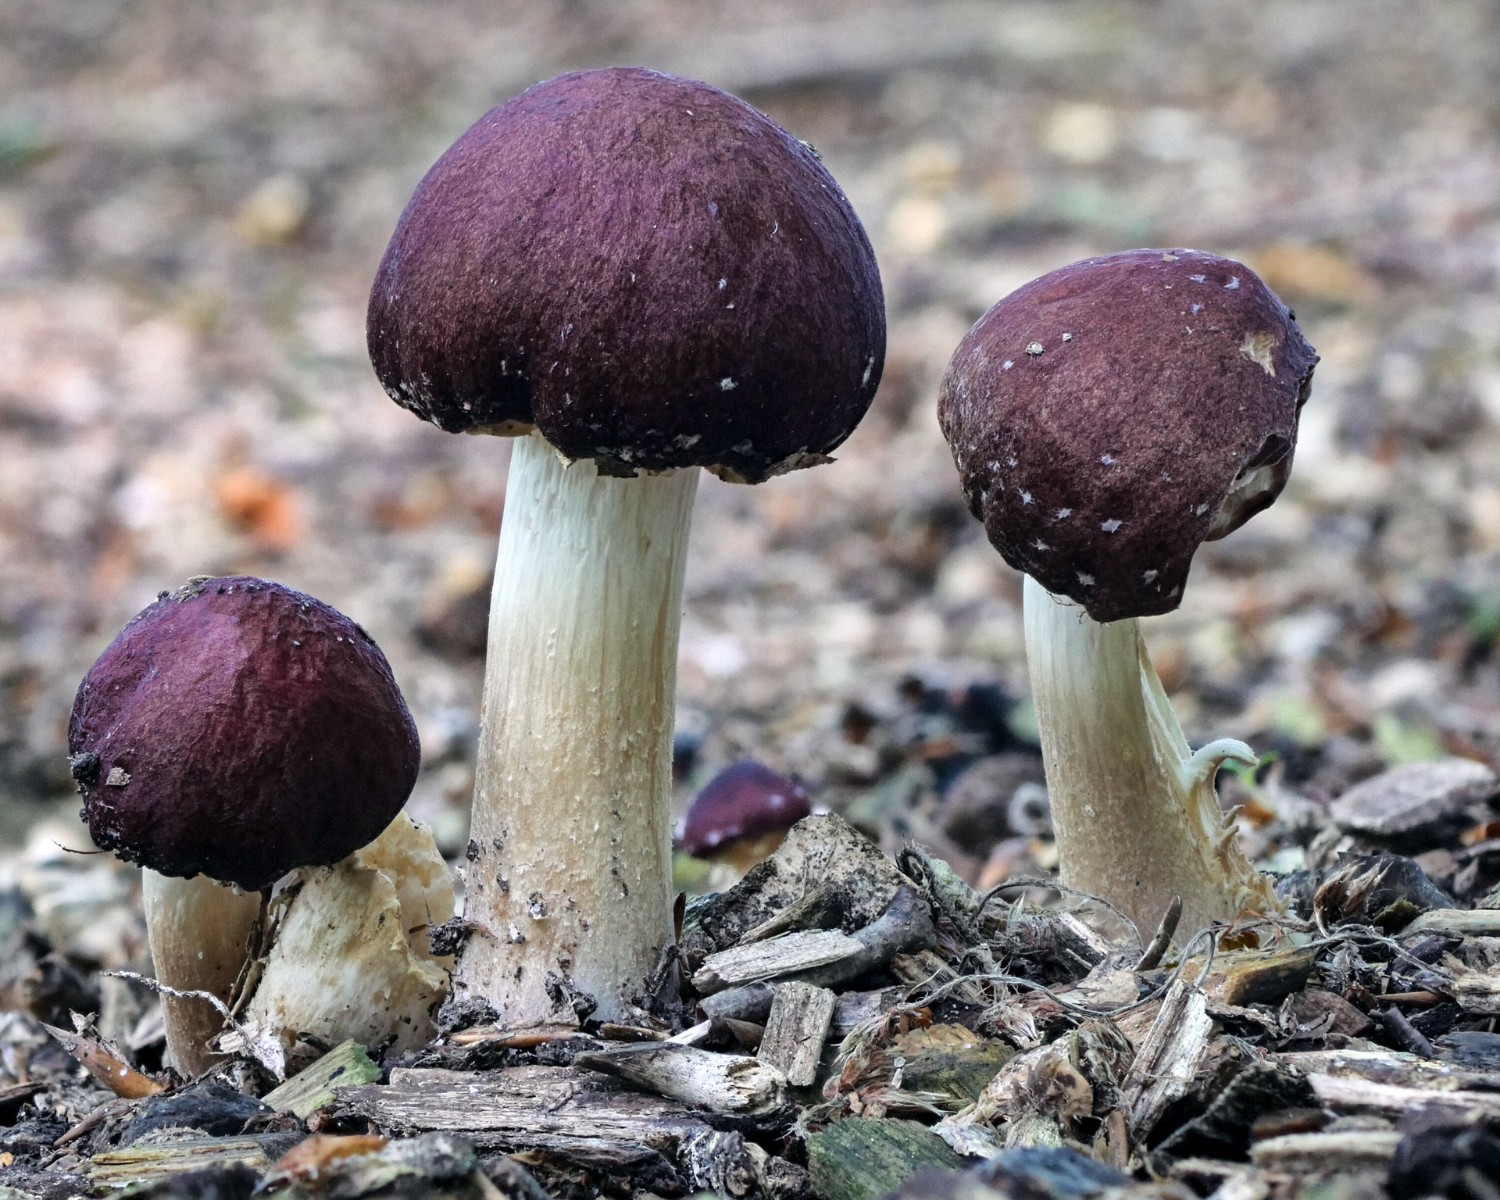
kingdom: Fungi
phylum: Basidiomycota
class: Agaricomycetes
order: Agaricales
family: Strophariaceae
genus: Stropharia
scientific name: Stropharia rugosoannulata
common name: rødbrun bredblad
